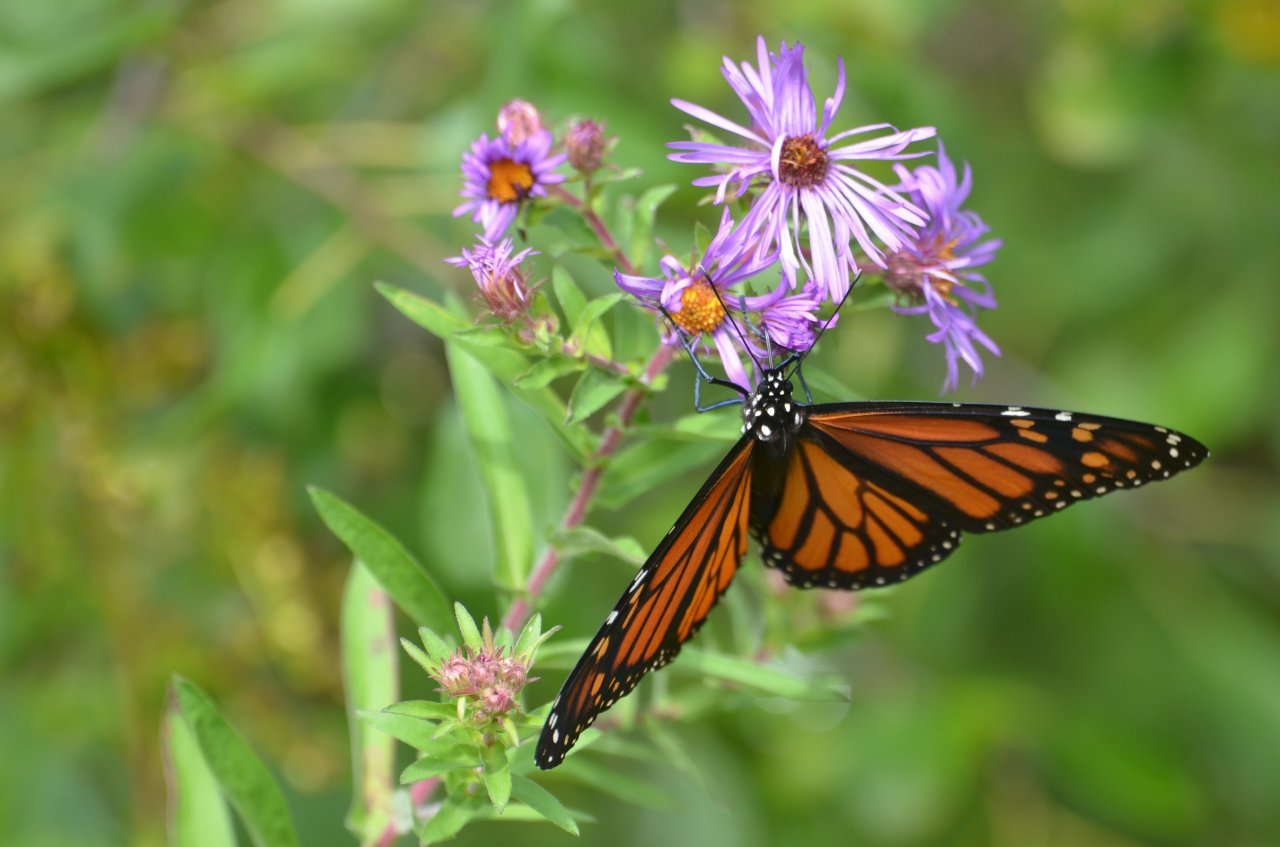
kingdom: Animalia
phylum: Arthropoda
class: Insecta
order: Lepidoptera
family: Nymphalidae
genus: Danaus
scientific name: Danaus plexippus
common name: Monarch
